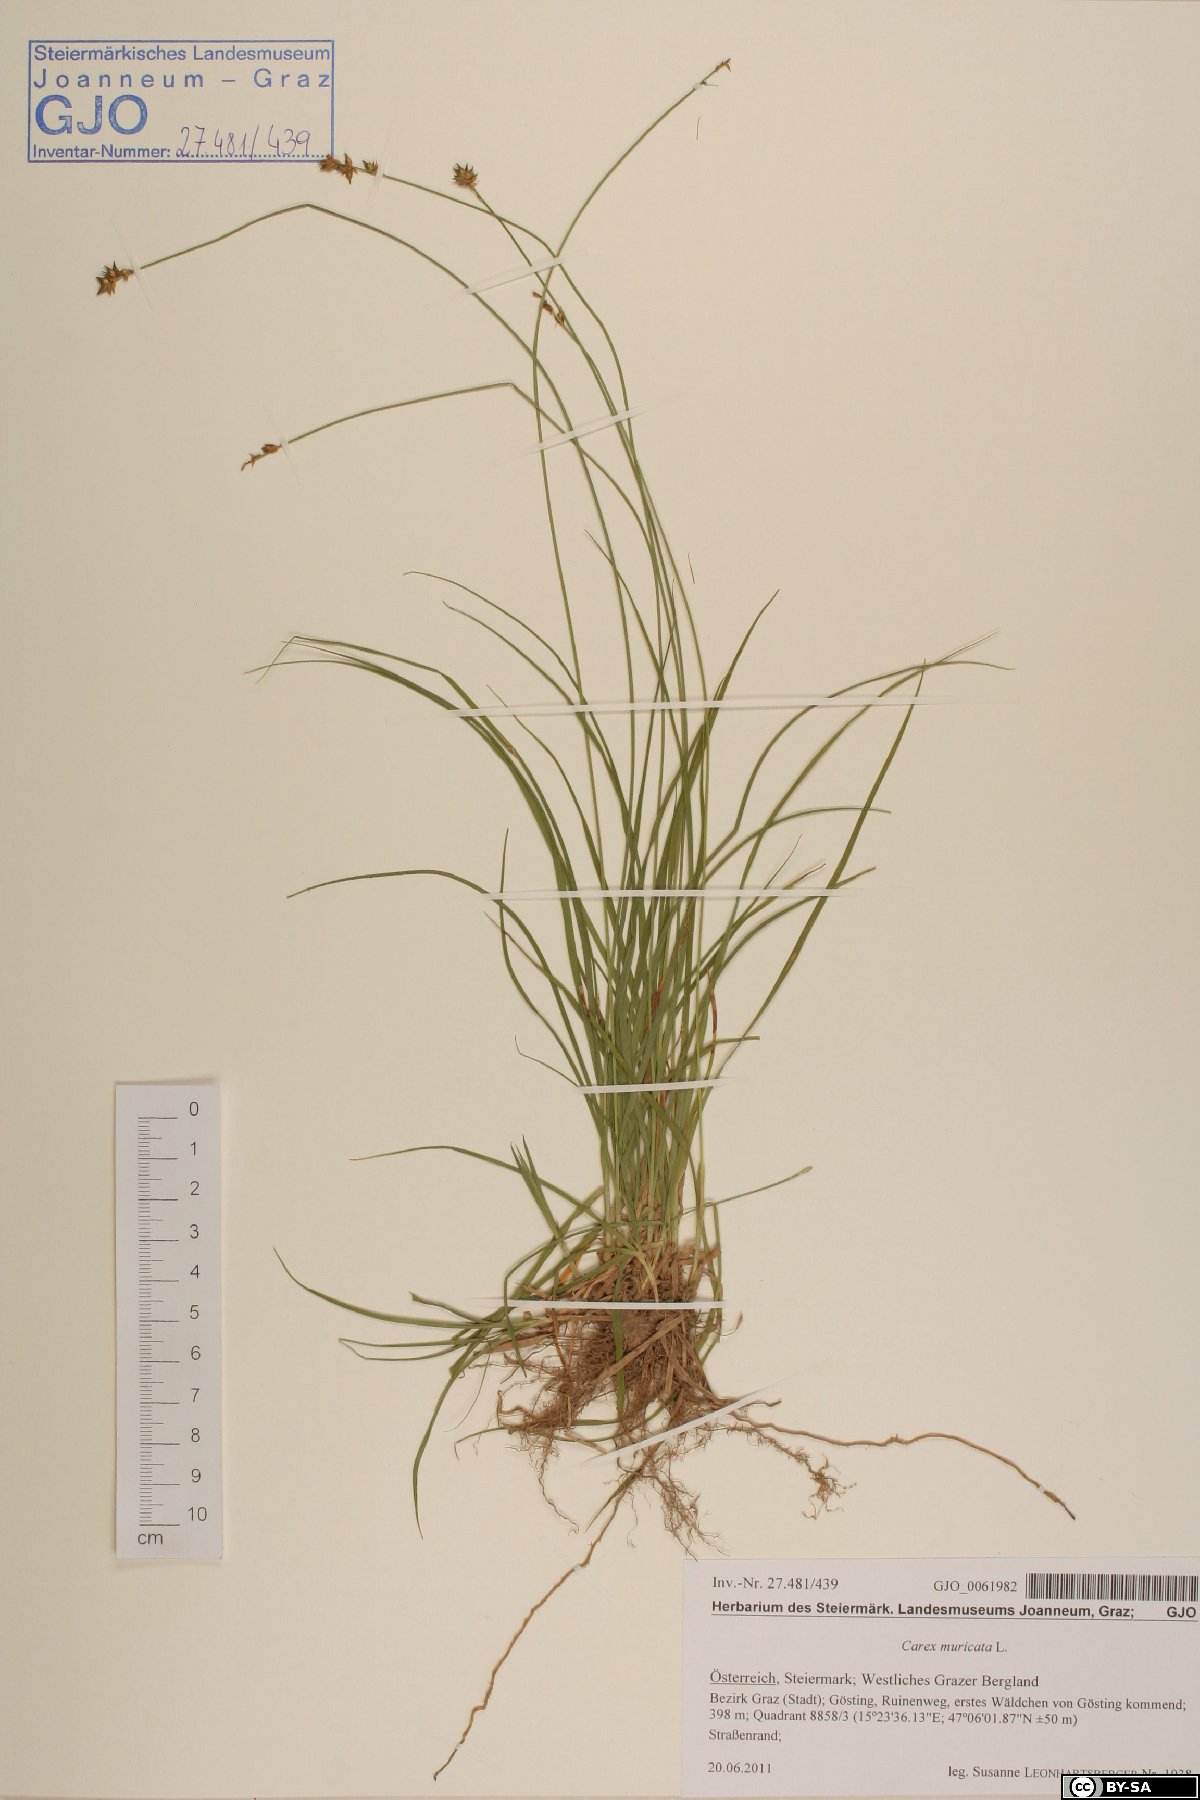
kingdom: Plantae
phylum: Tracheophyta
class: Liliopsida
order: Poales
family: Cyperaceae
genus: Carex
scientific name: Carex muricata
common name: Rough sedge
